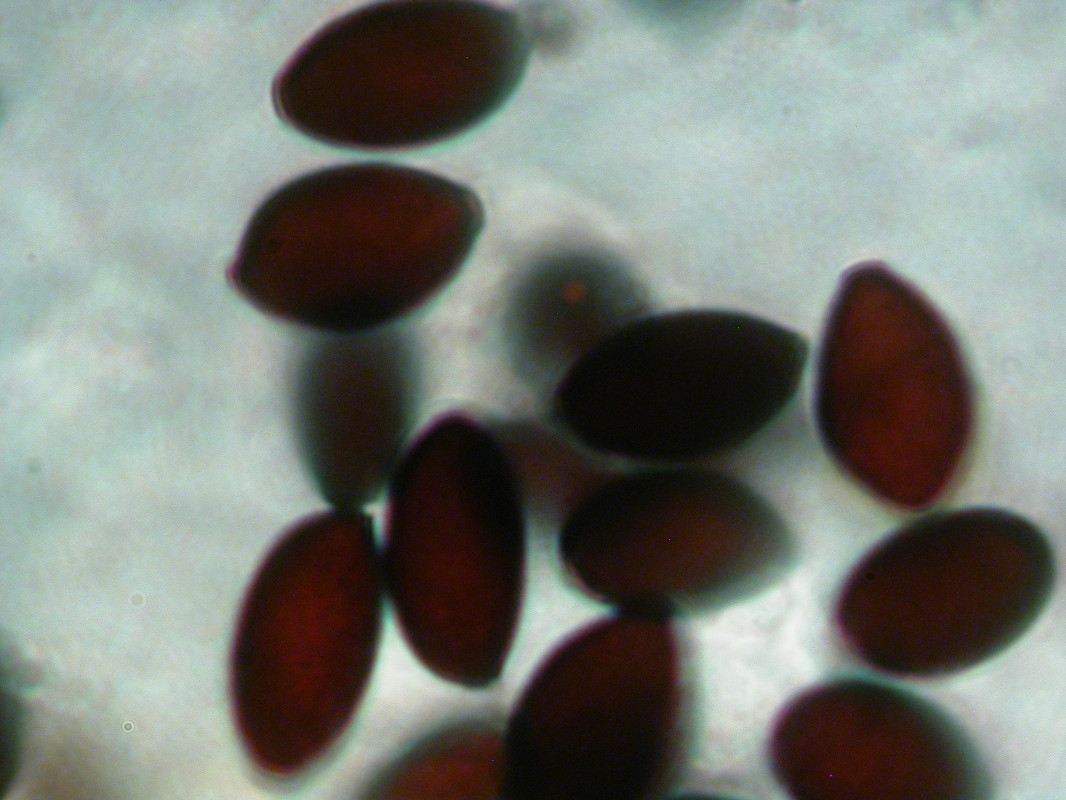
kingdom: Fungi
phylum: Basidiomycota
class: Agaricomycetes
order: Agaricales
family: Bolbitiaceae
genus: Panaeolus
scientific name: Panaeolus papilionaceus
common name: Petticoat mottlegill
